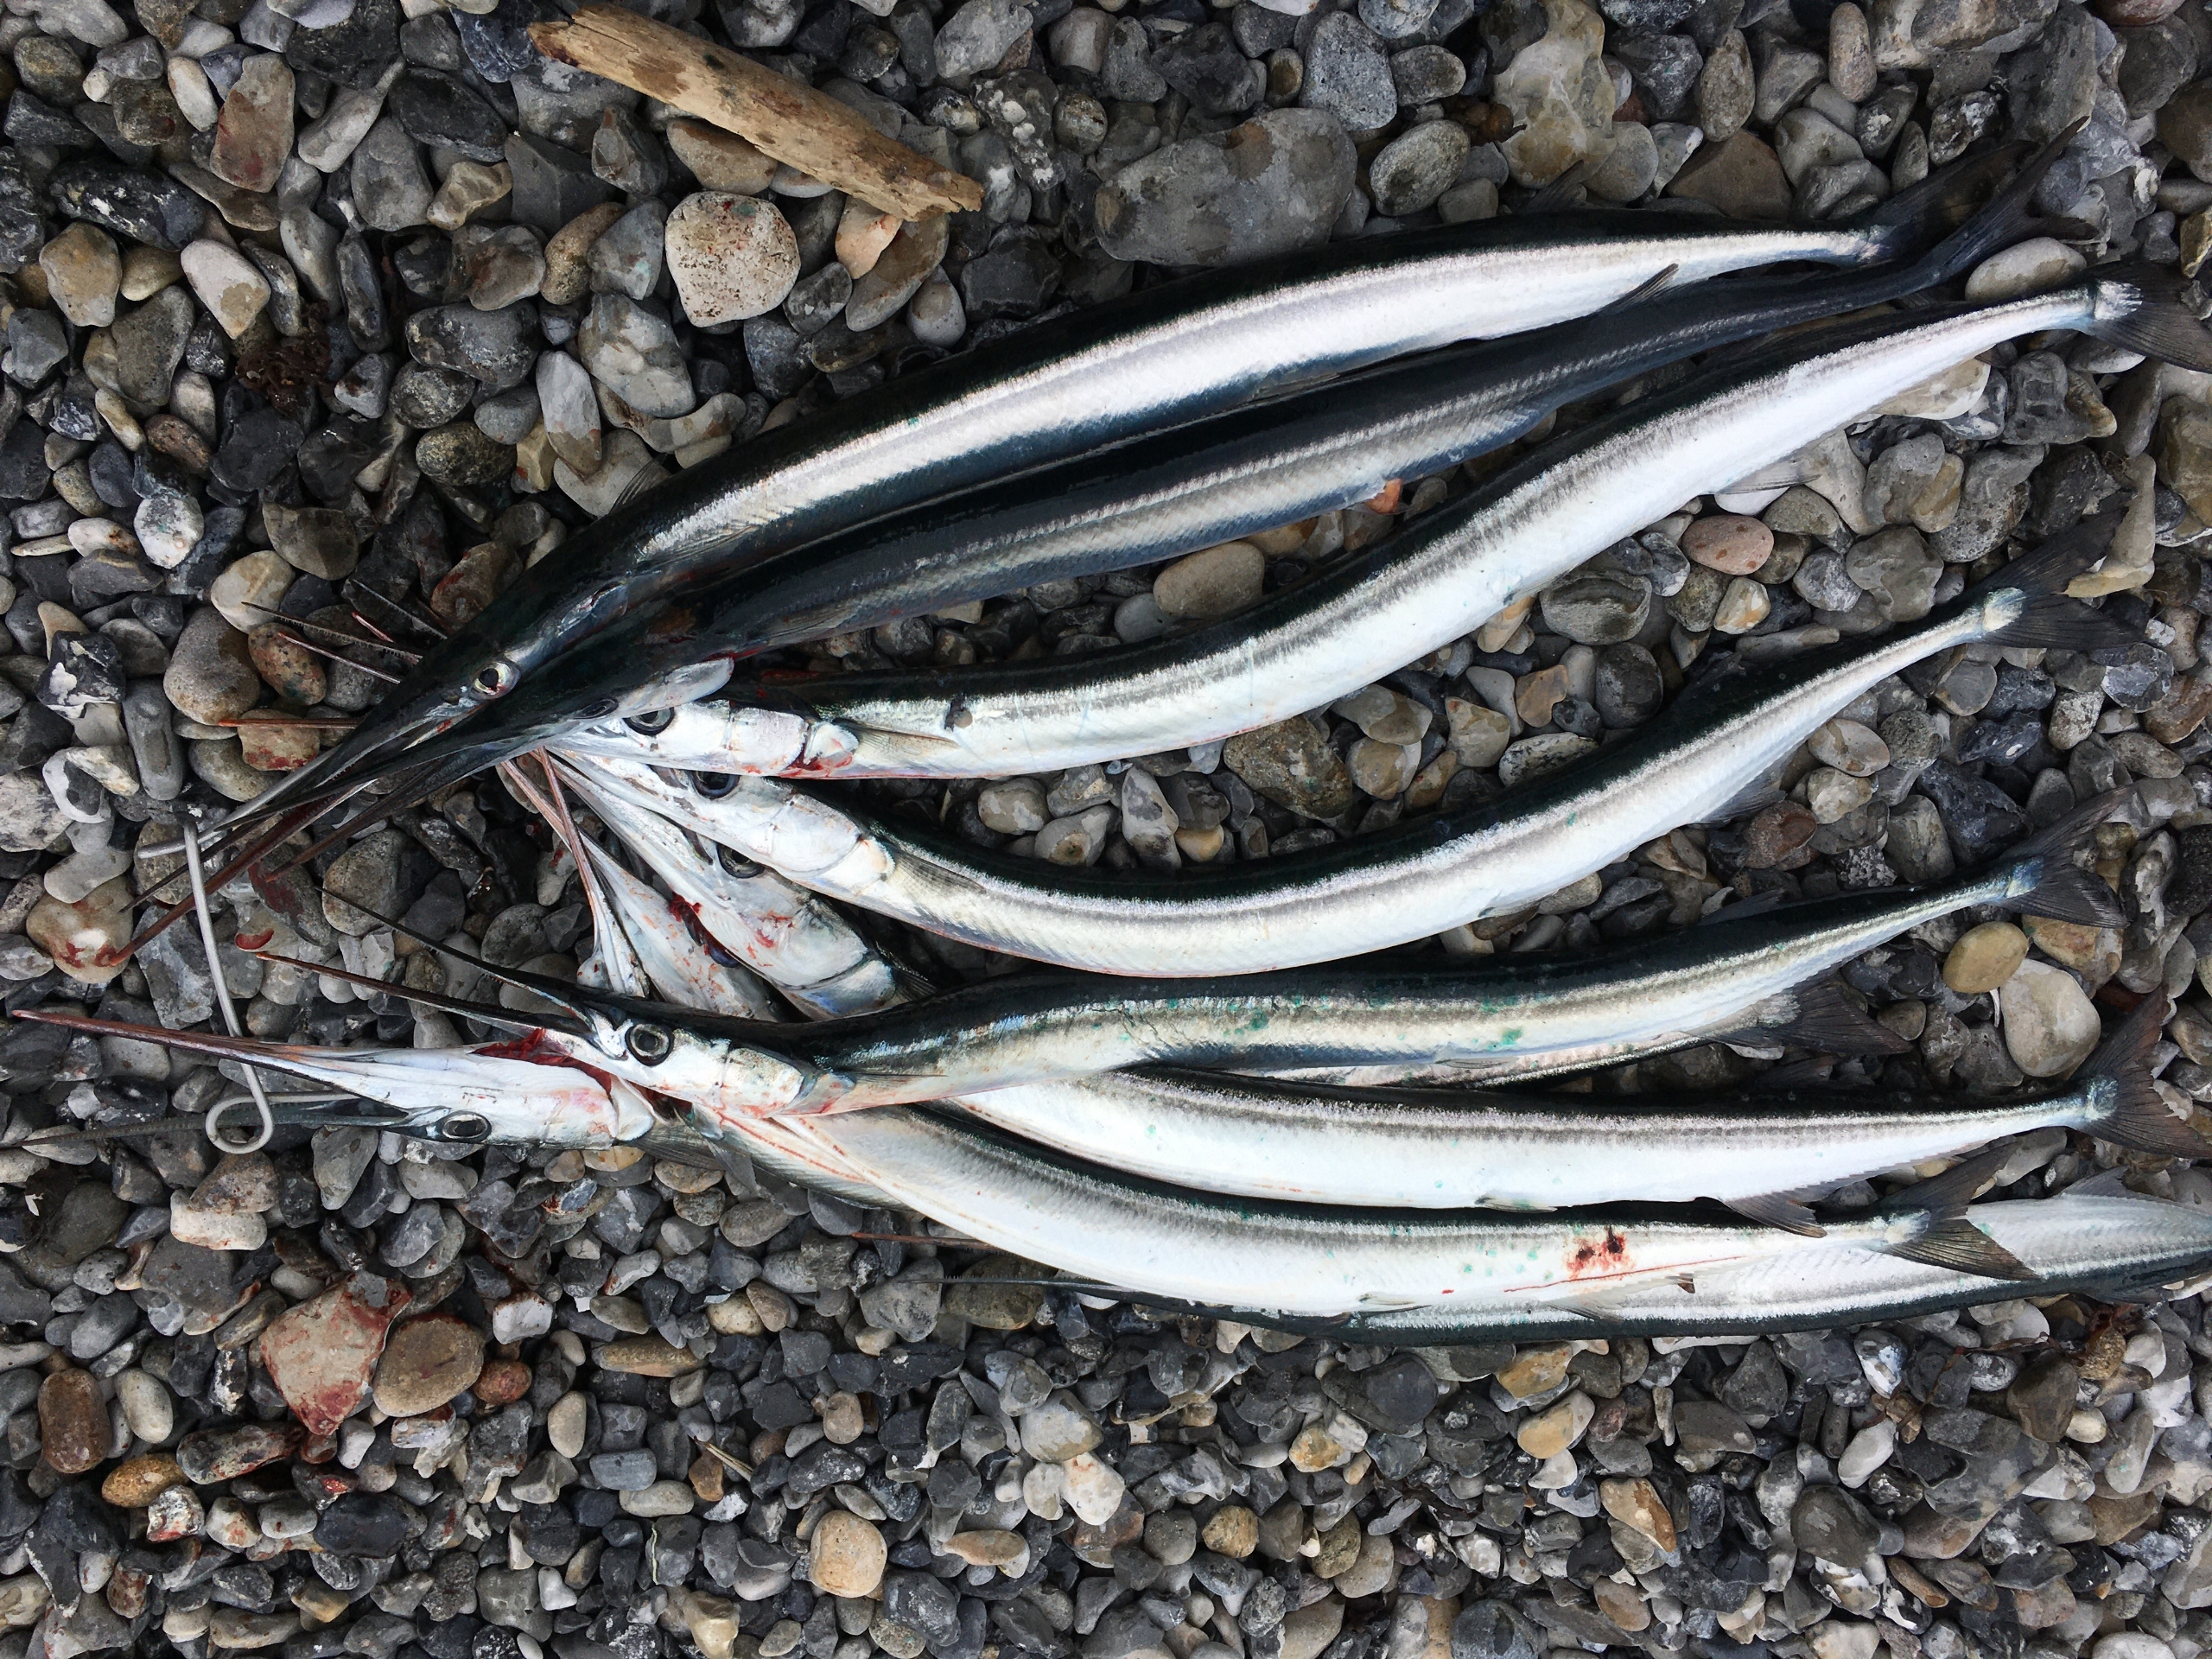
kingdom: Animalia
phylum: Chordata
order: Beloniformes
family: Belonidae
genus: Belone
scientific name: Belone belone
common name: Hornfisk
